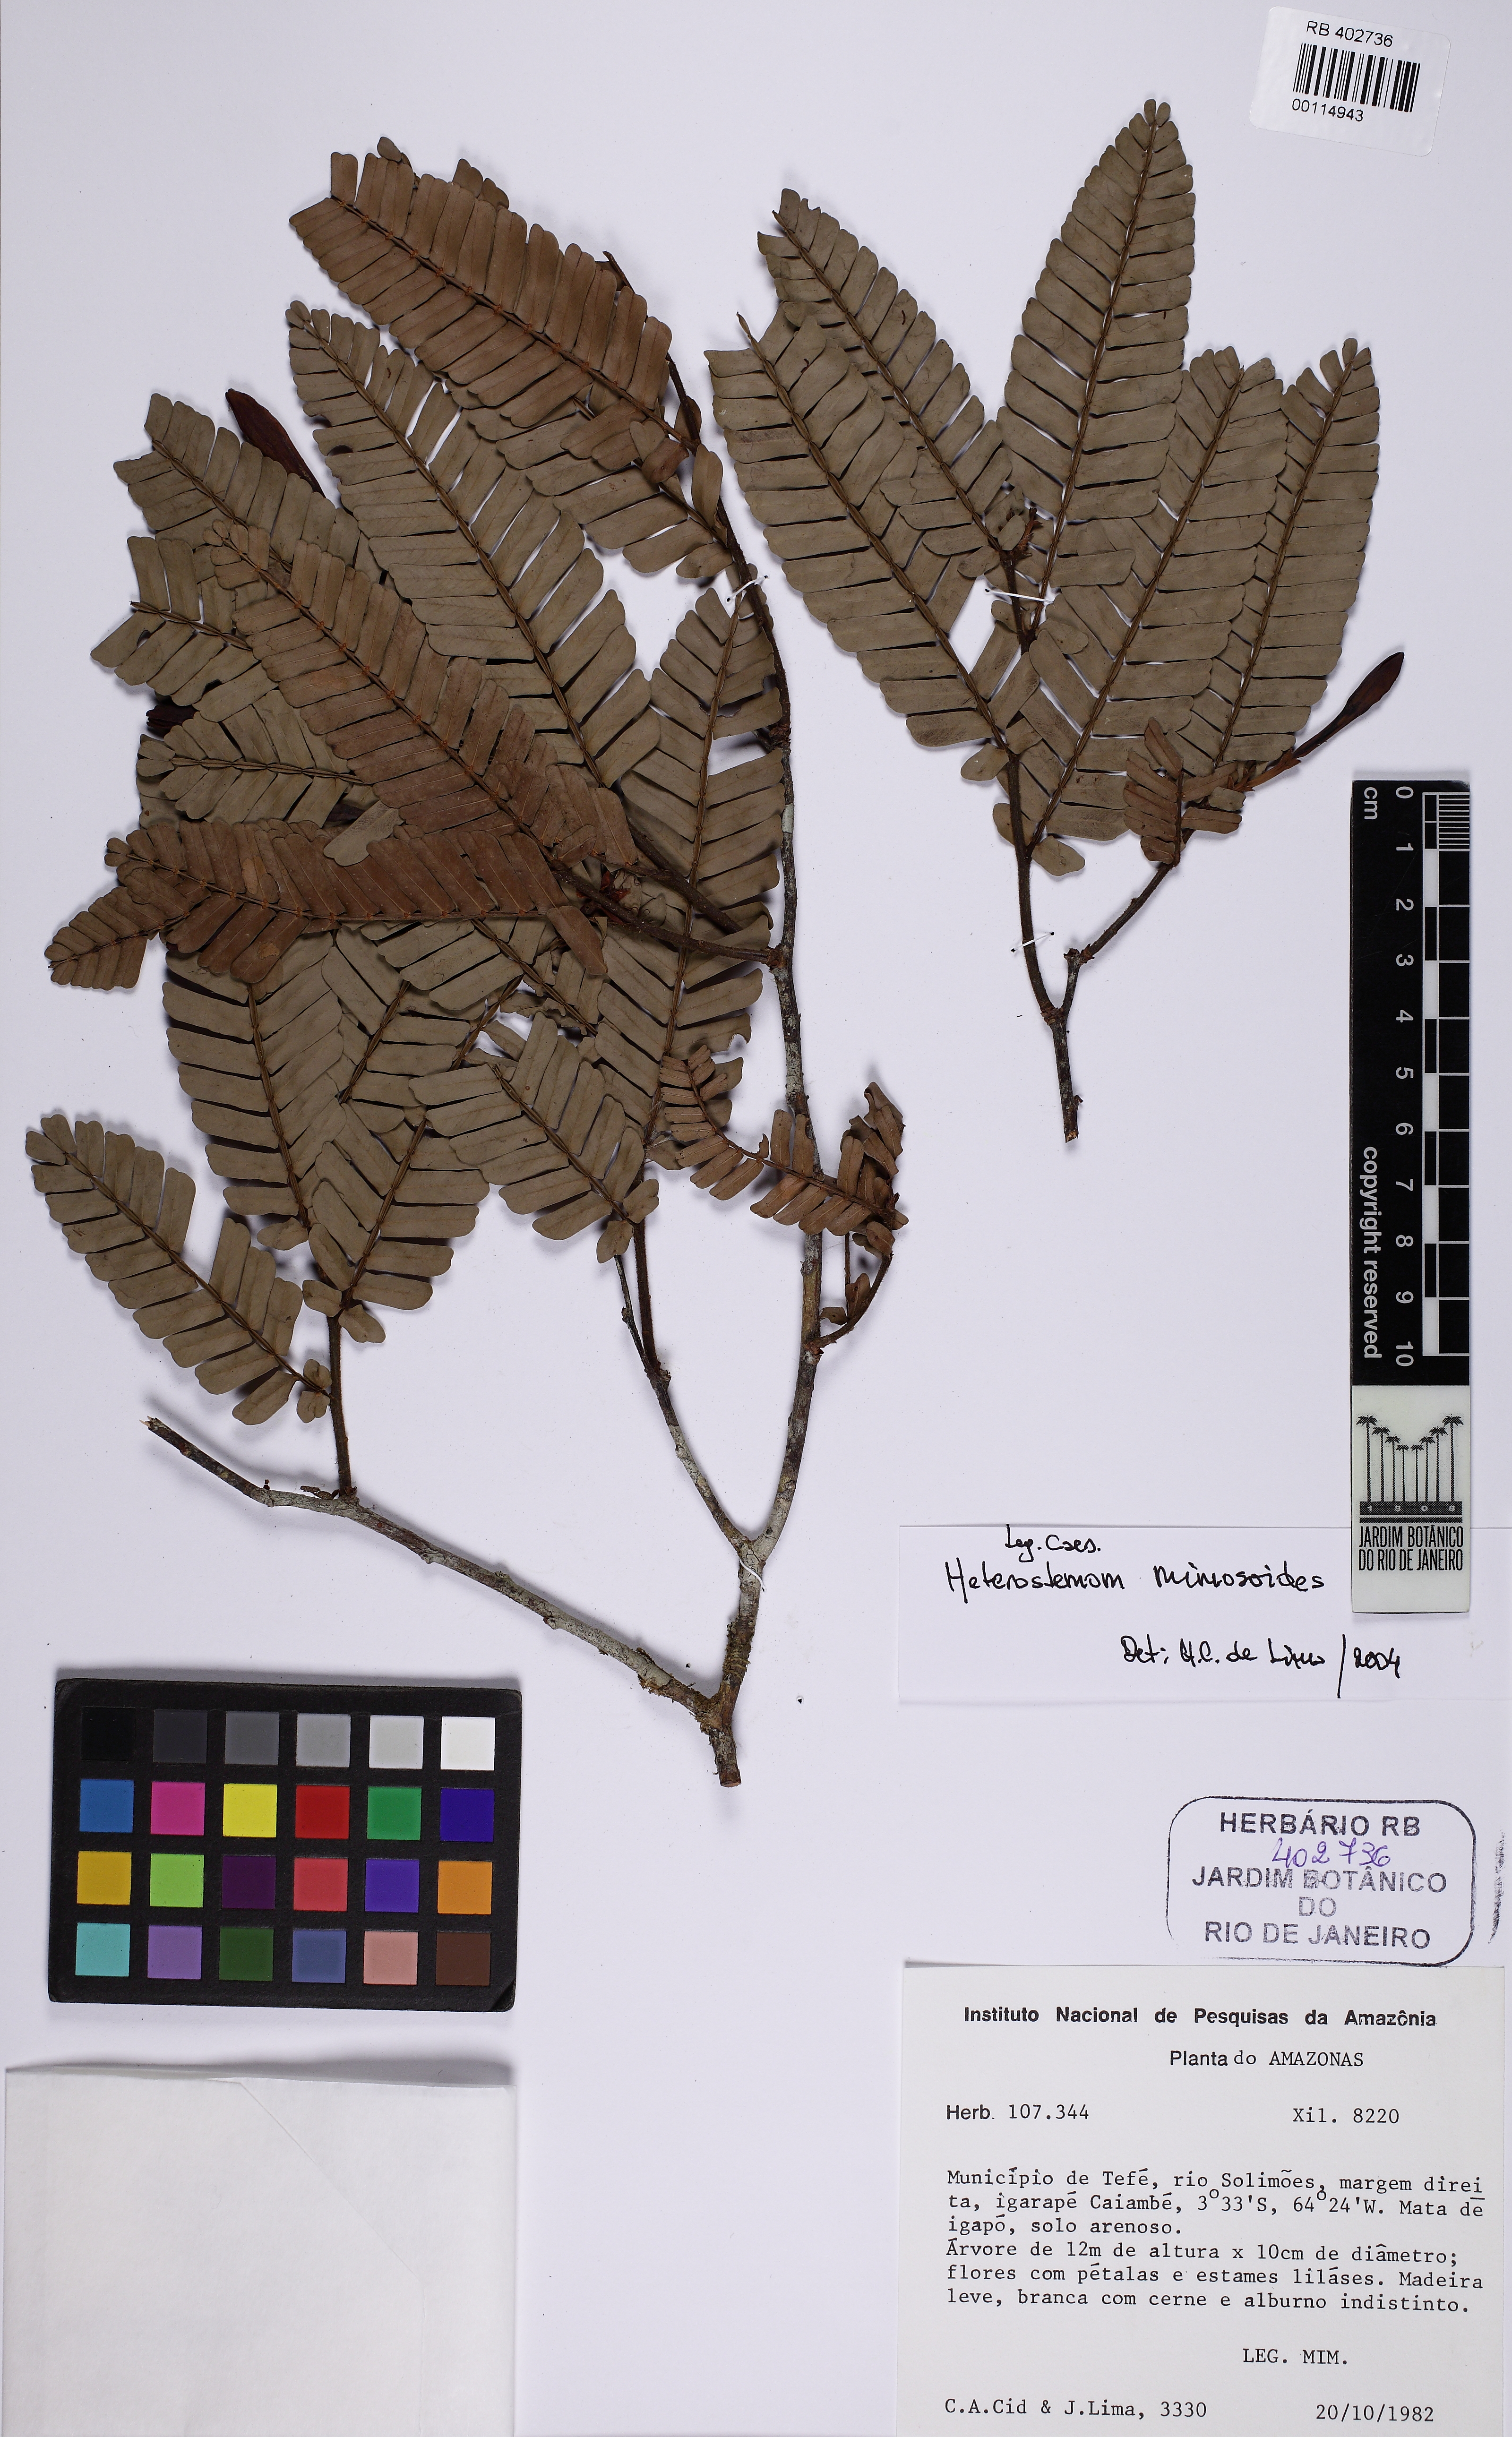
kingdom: Plantae
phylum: Tracheophyta
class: Magnoliopsida
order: Fabales
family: Fabaceae
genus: Heterostemon
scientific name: Heterostemon mimosoides
